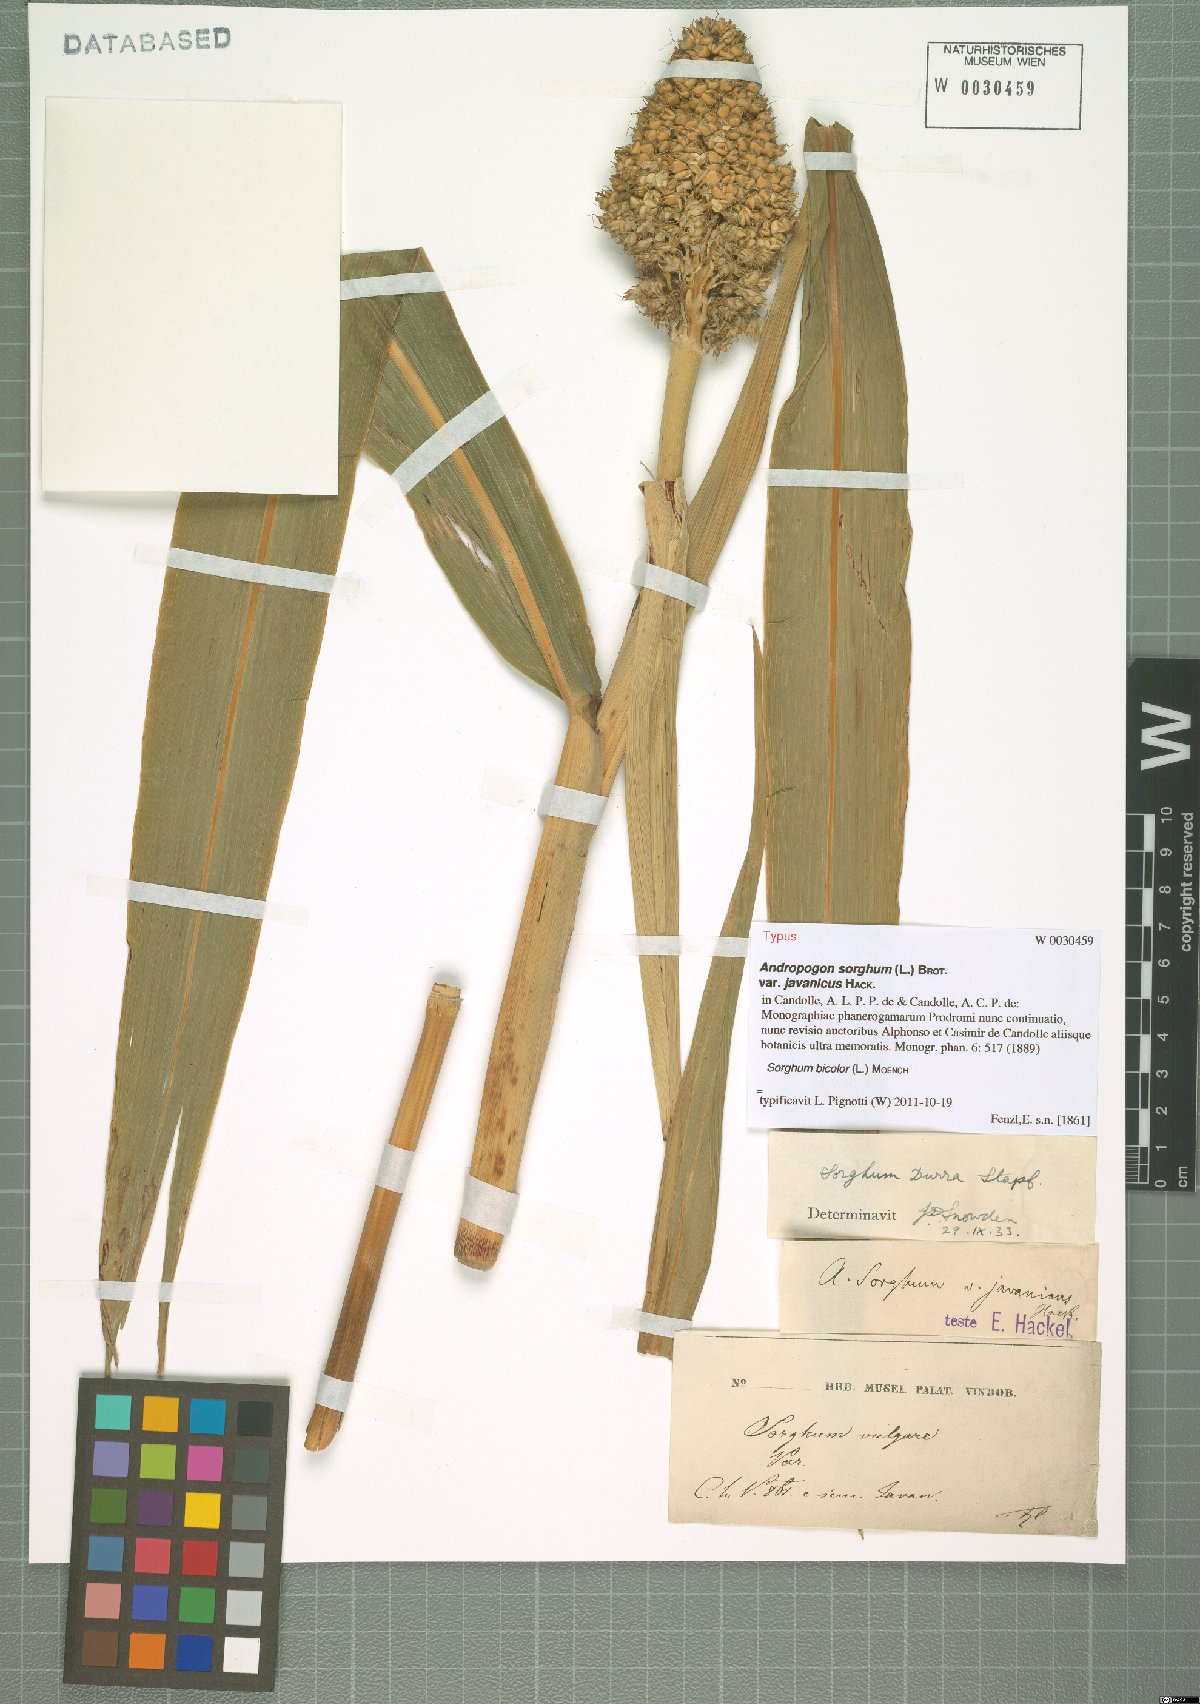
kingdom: Plantae
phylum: Tracheophyta
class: Liliopsida
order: Poales
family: Poaceae
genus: Sorghum
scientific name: Sorghum bicolor
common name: Sorghum
